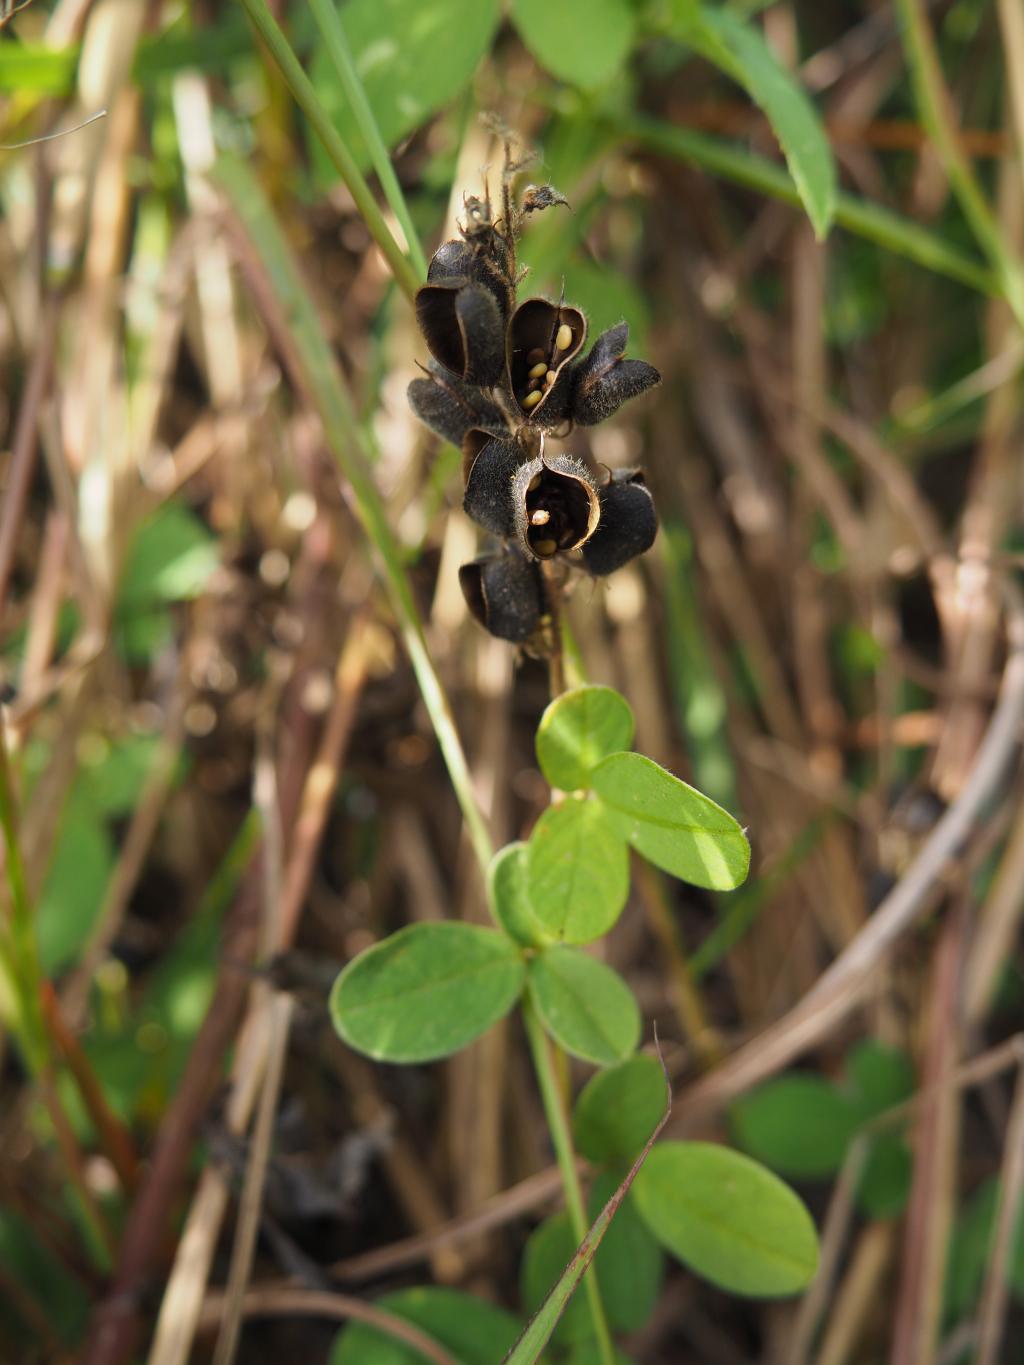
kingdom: Plantae
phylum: Tracheophyta
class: Magnoliopsida
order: Fabales
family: Fabaceae
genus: Pycnospora
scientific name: Pycnospora lutescens
